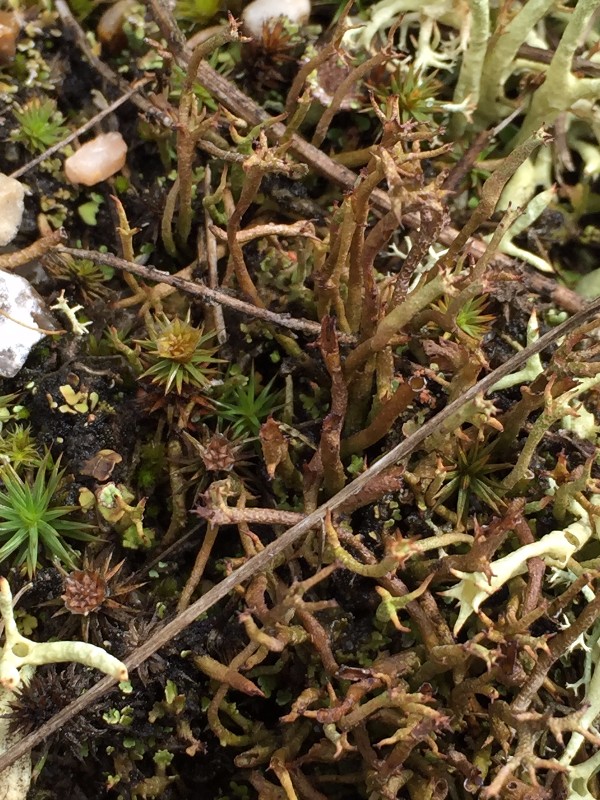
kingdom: Fungi
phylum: Ascomycota
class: Lecanoromycetes
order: Lecanorales
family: Cladoniaceae
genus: Cladonia
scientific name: Cladonia crispata
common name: takket bægerlav
